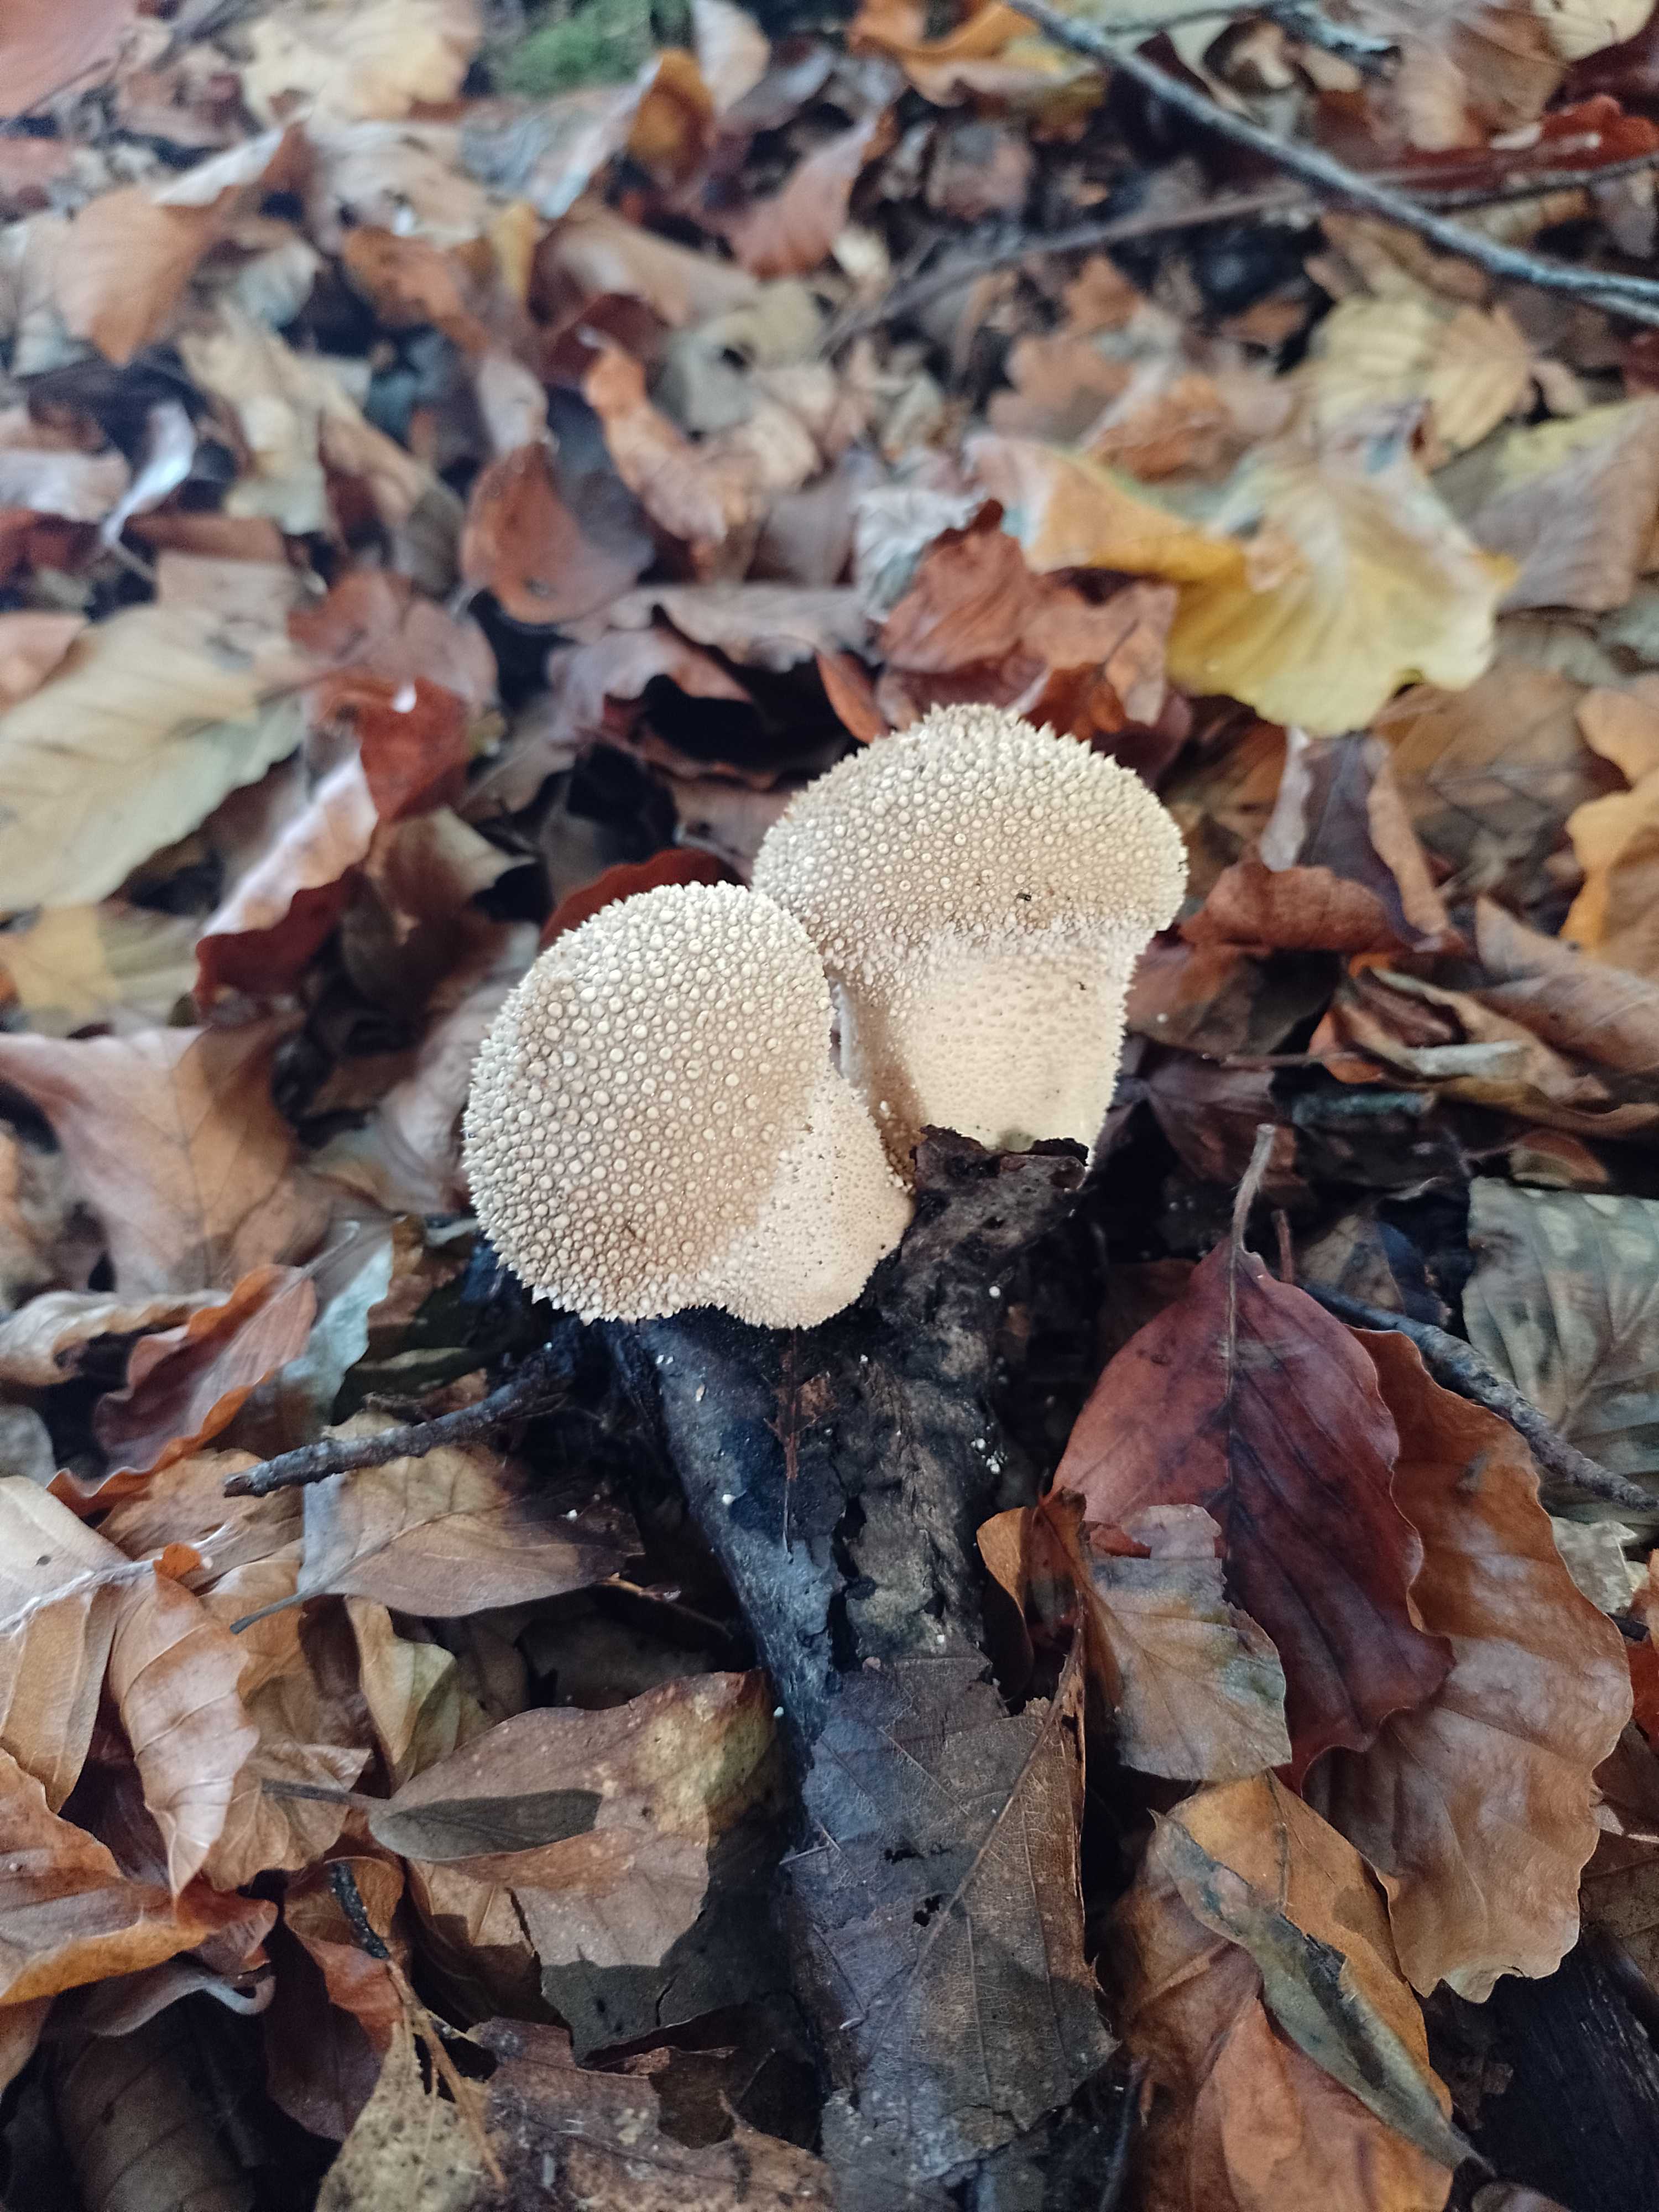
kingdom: Fungi
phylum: Basidiomycota
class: Agaricomycetes
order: Agaricales
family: Lycoperdaceae
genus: Lycoperdon
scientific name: Lycoperdon perlatum
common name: krystal-støvbold
